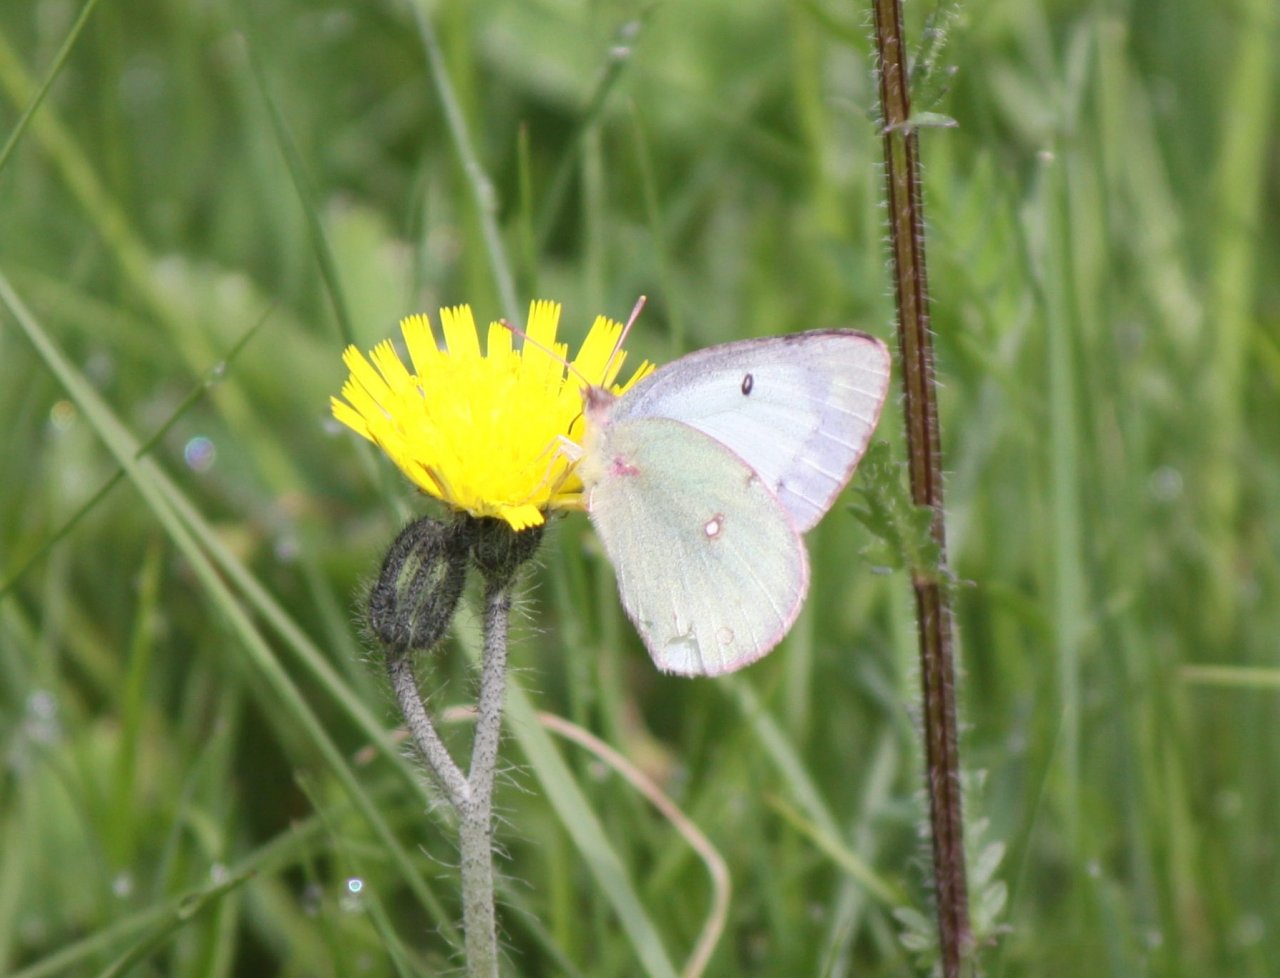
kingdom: Animalia
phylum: Arthropoda
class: Insecta
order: Lepidoptera
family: Pieridae
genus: Colias
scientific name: Colias philodice
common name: Clouded Sulphur
